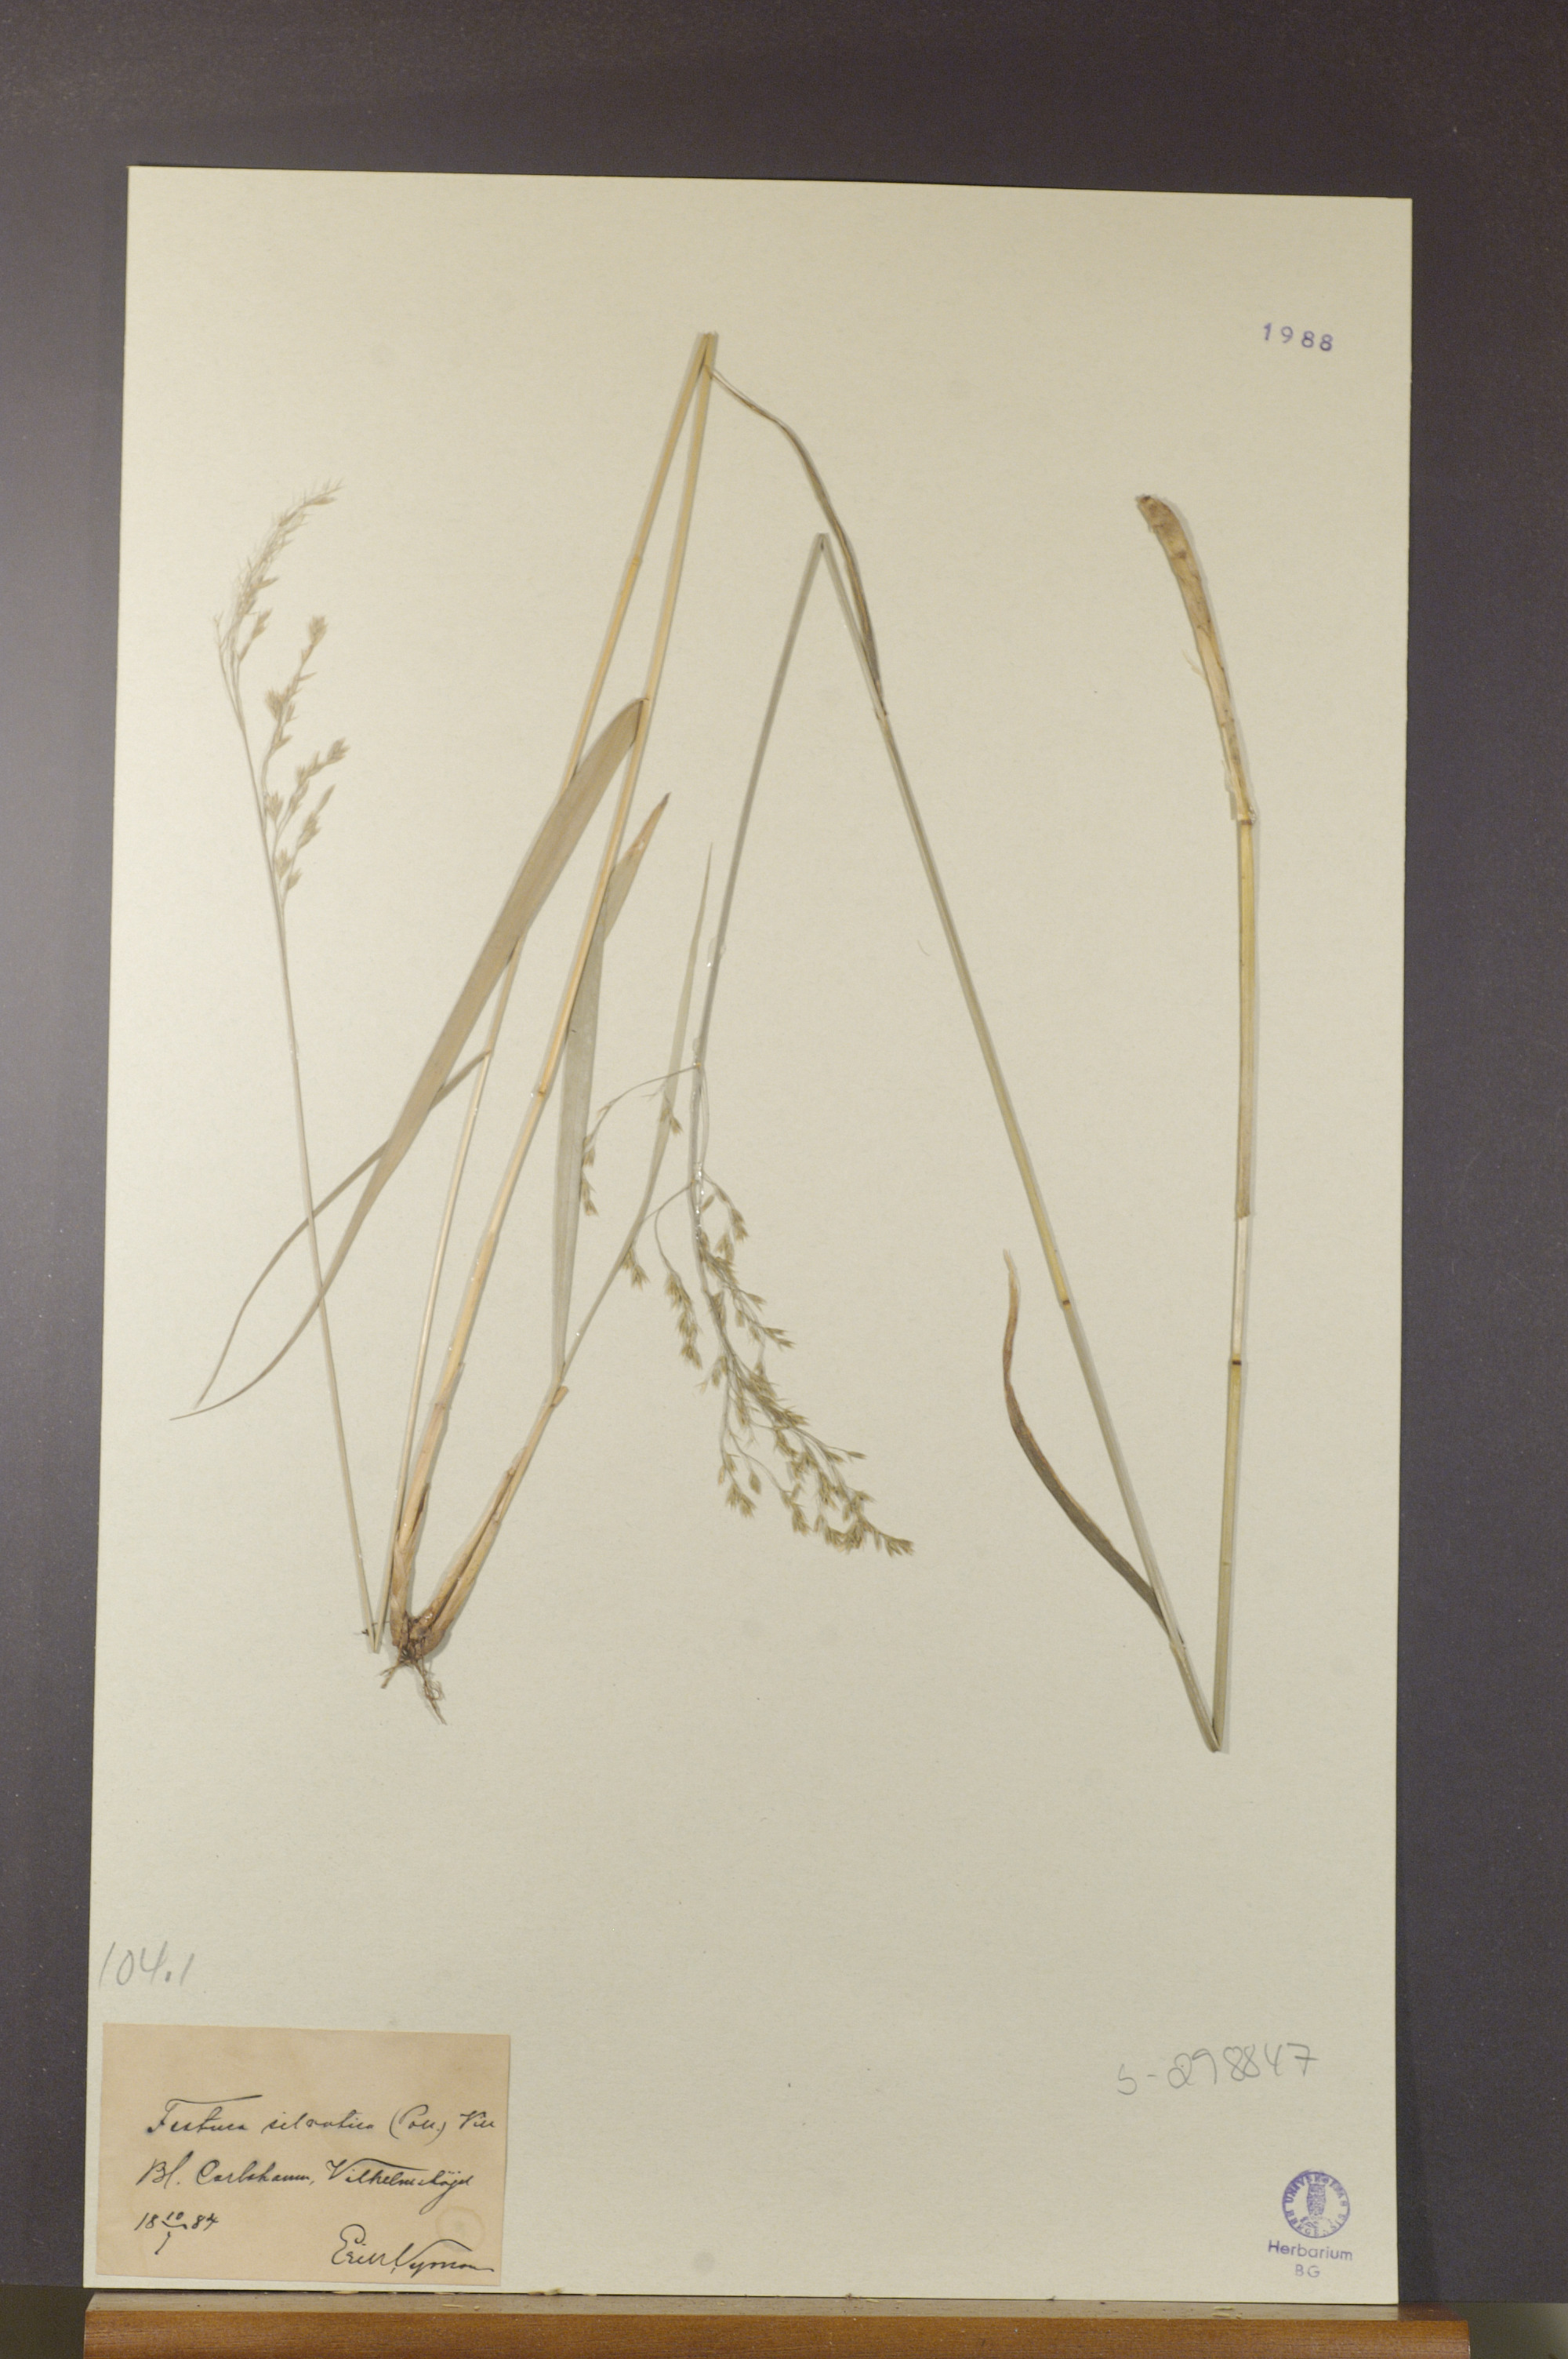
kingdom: Plantae
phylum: Tracheophyta
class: Liliopsida
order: Poales
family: Poaceae
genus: Festuca
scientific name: Festuca altissima
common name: Wood fescue
